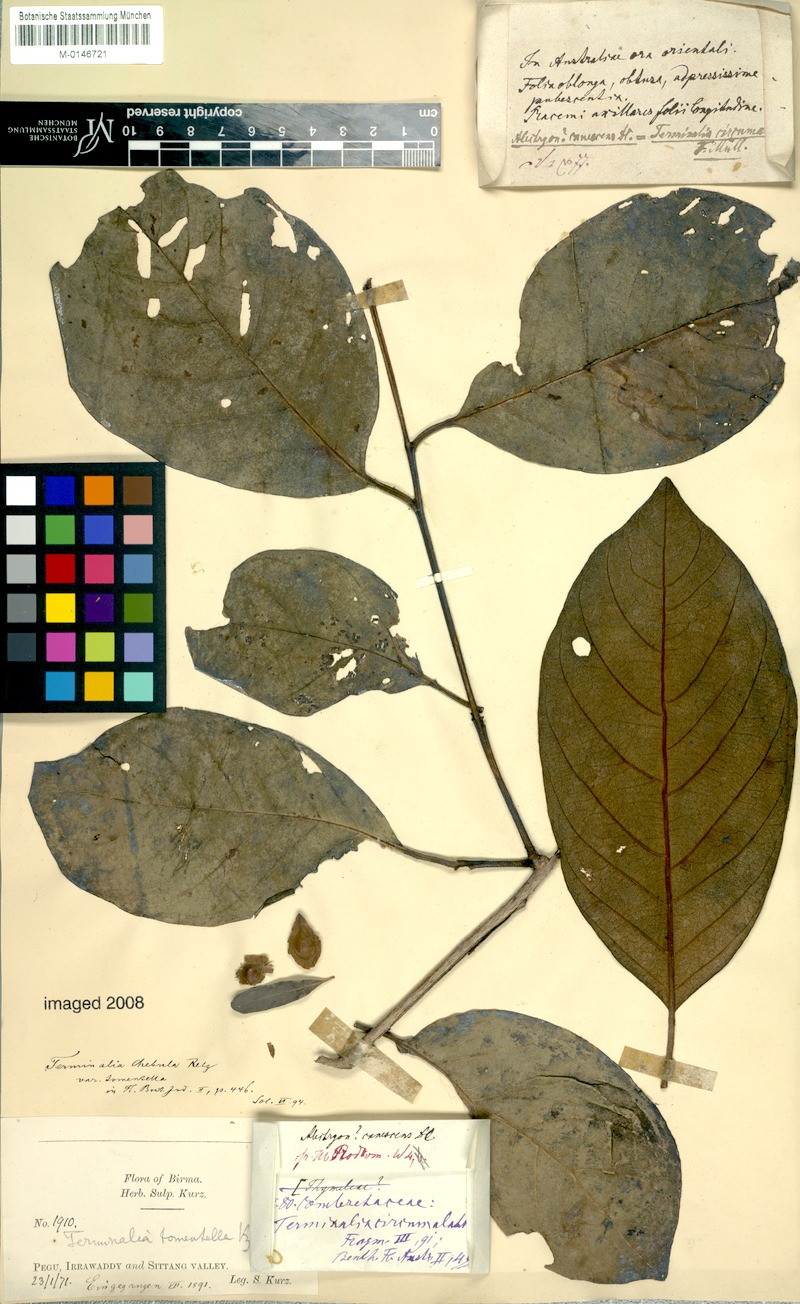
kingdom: Plantae
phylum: Tracheophyta
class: Magnoliopsida
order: Myrtales
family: Combretaceae
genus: Terminalia
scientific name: Terminalia chebula
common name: Myrobalan
